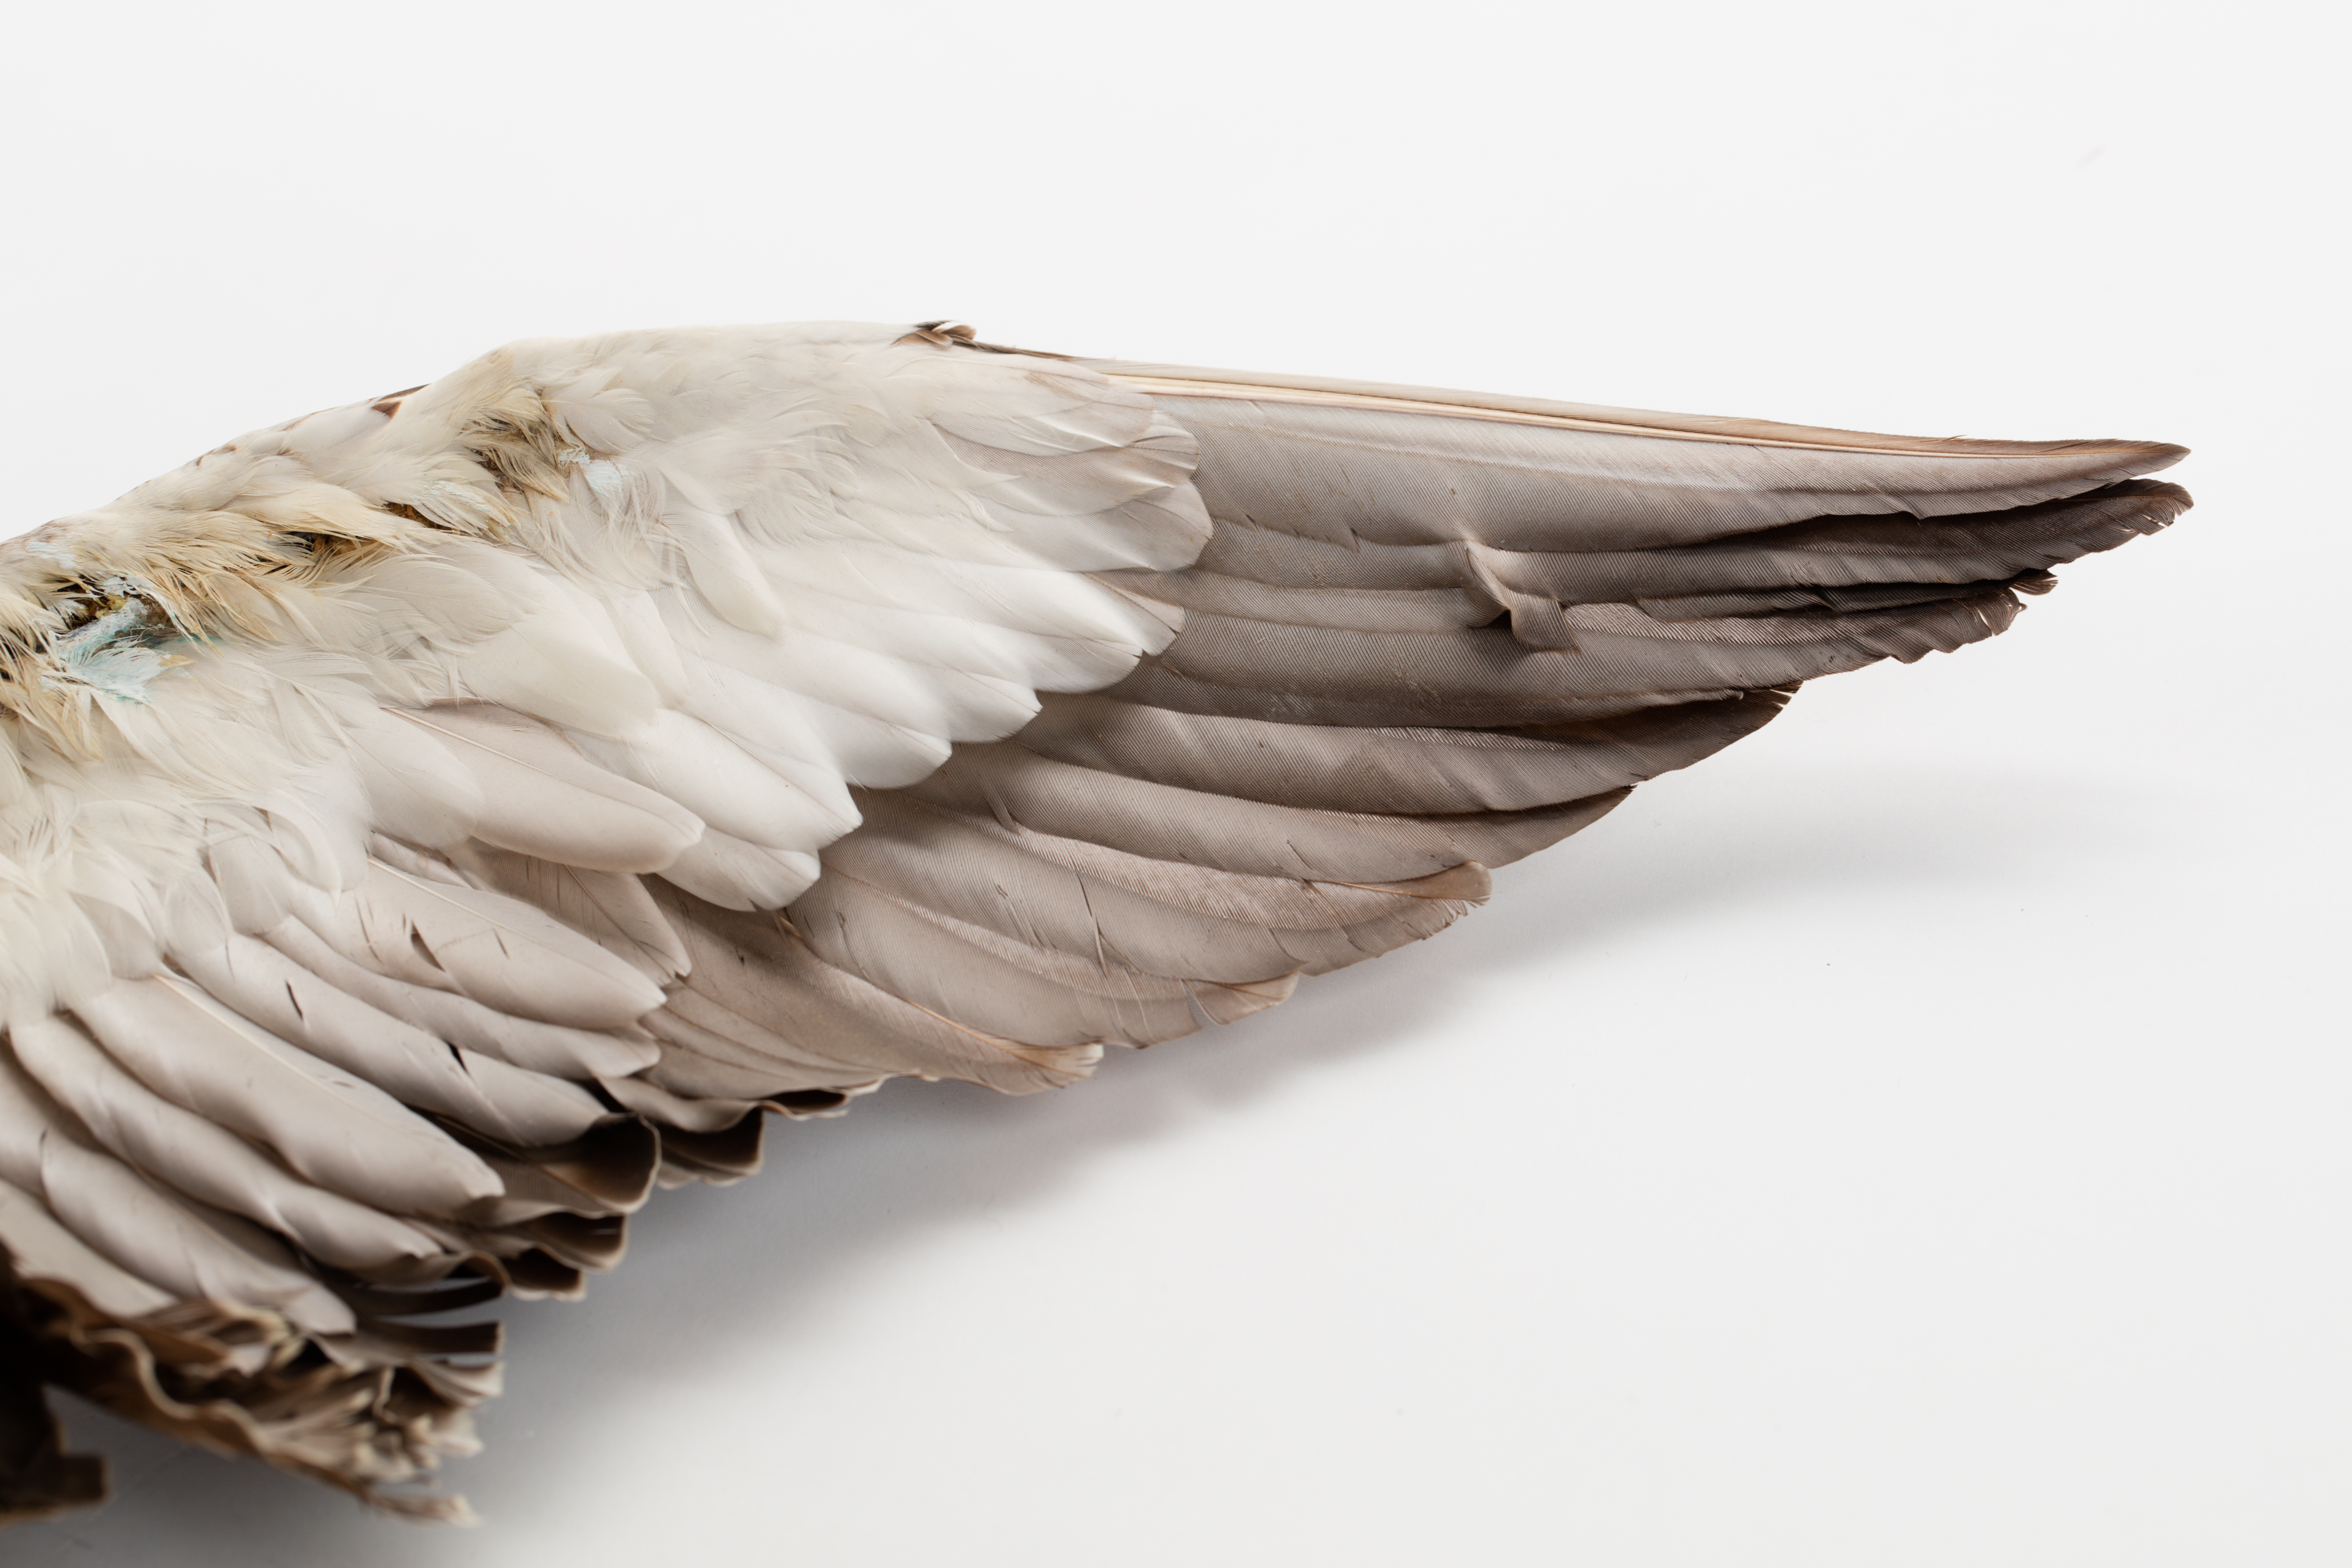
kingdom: Animalia
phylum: Chordata
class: Aves
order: Anseriformes
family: Anatidae
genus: Anas
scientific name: Anas superciliosa
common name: Pacific black duck
